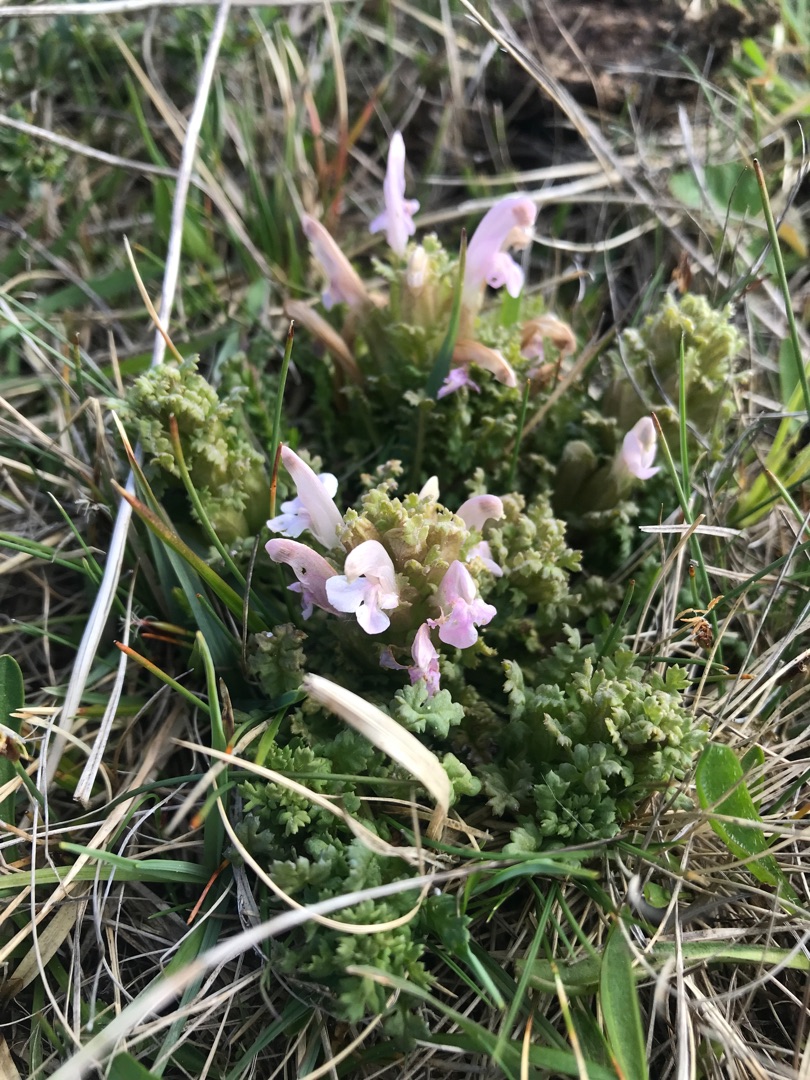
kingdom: Plantae
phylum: Tracheophyta
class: Magnoliopsida
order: Lamiales
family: Orobanchaceae
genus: Pedicularis
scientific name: Pedicularis sylvatica
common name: Mose-troldurt
